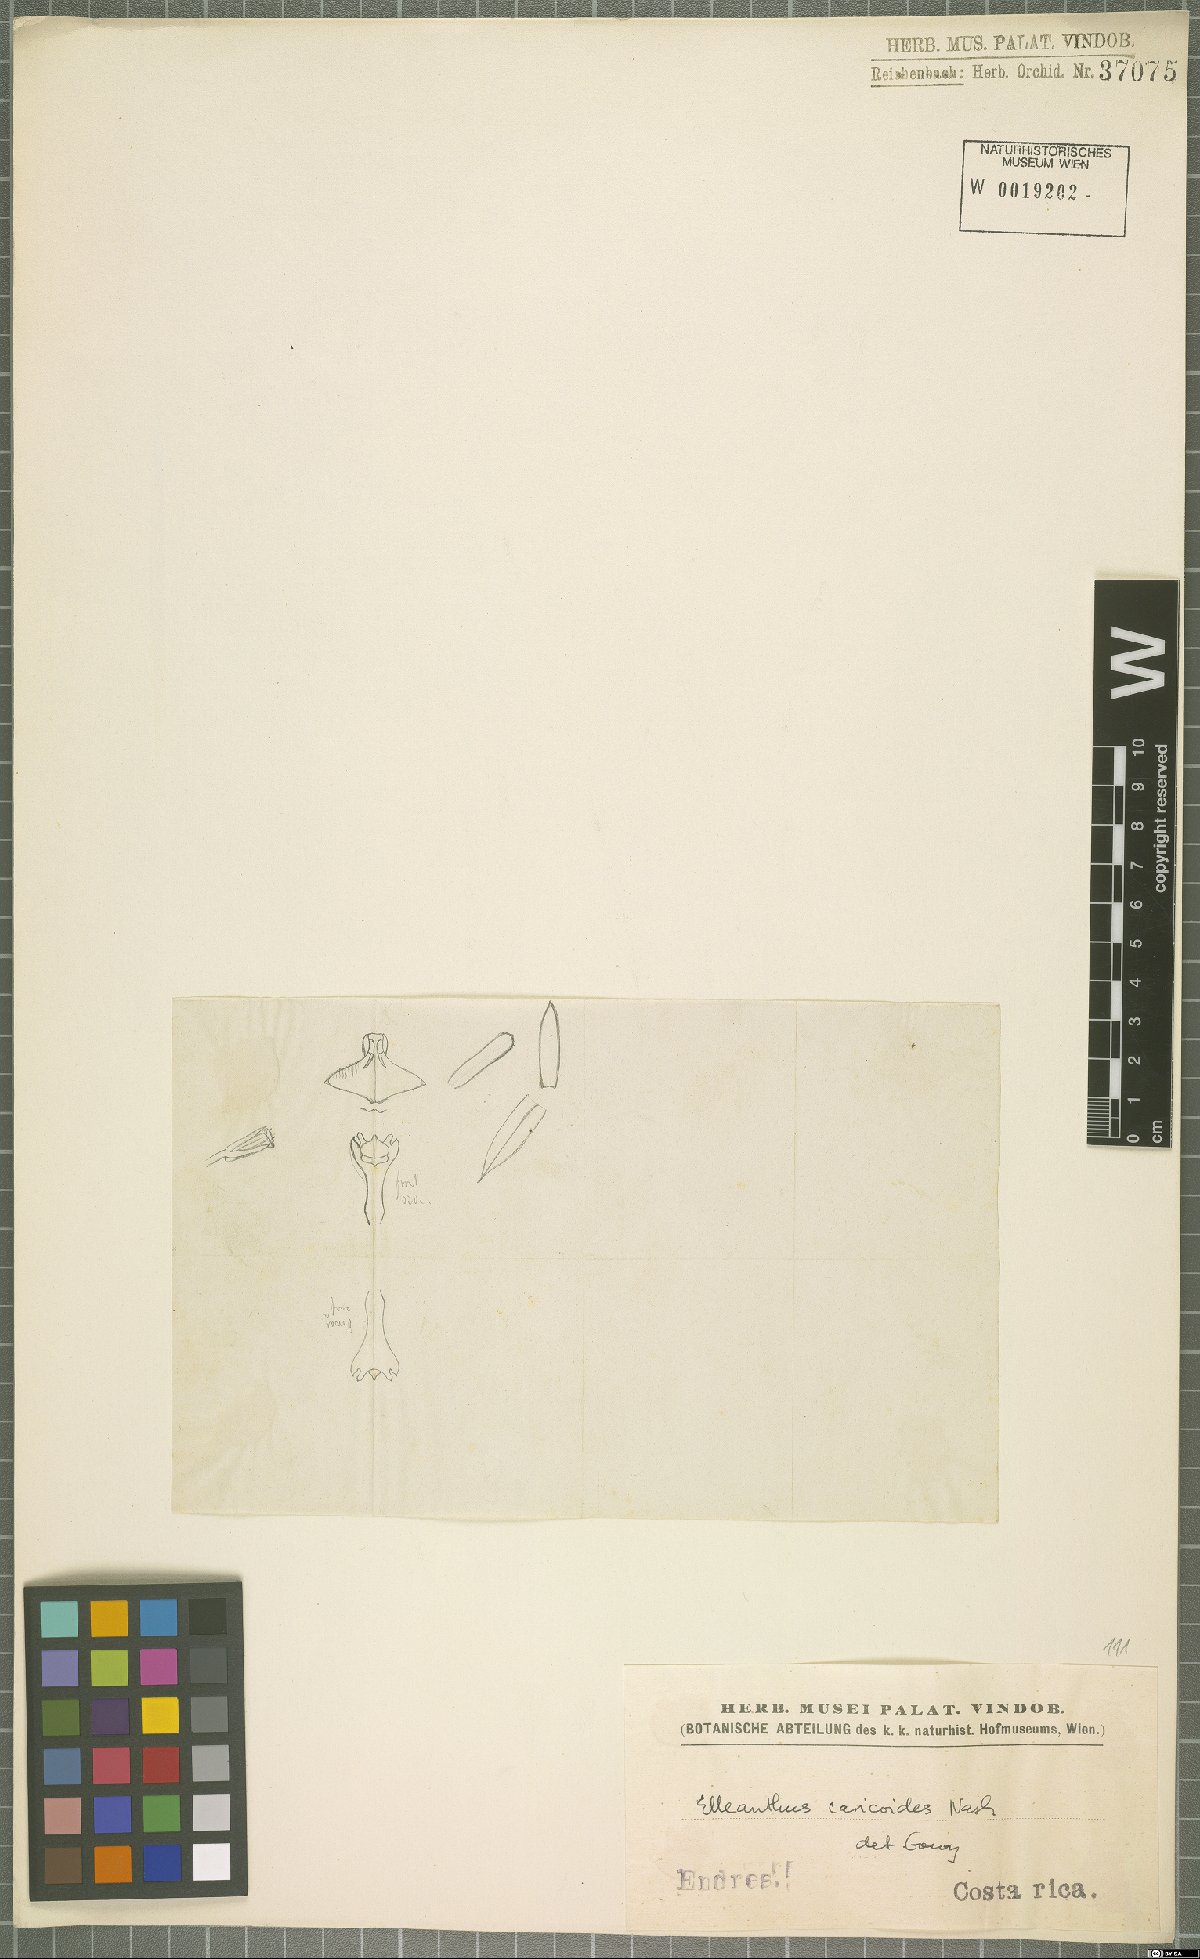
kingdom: Plantae
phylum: Tracheophyta
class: Liliopsida
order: Asparagales
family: Orchidaceae
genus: Elleanthus
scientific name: Elleanthus caricoides
